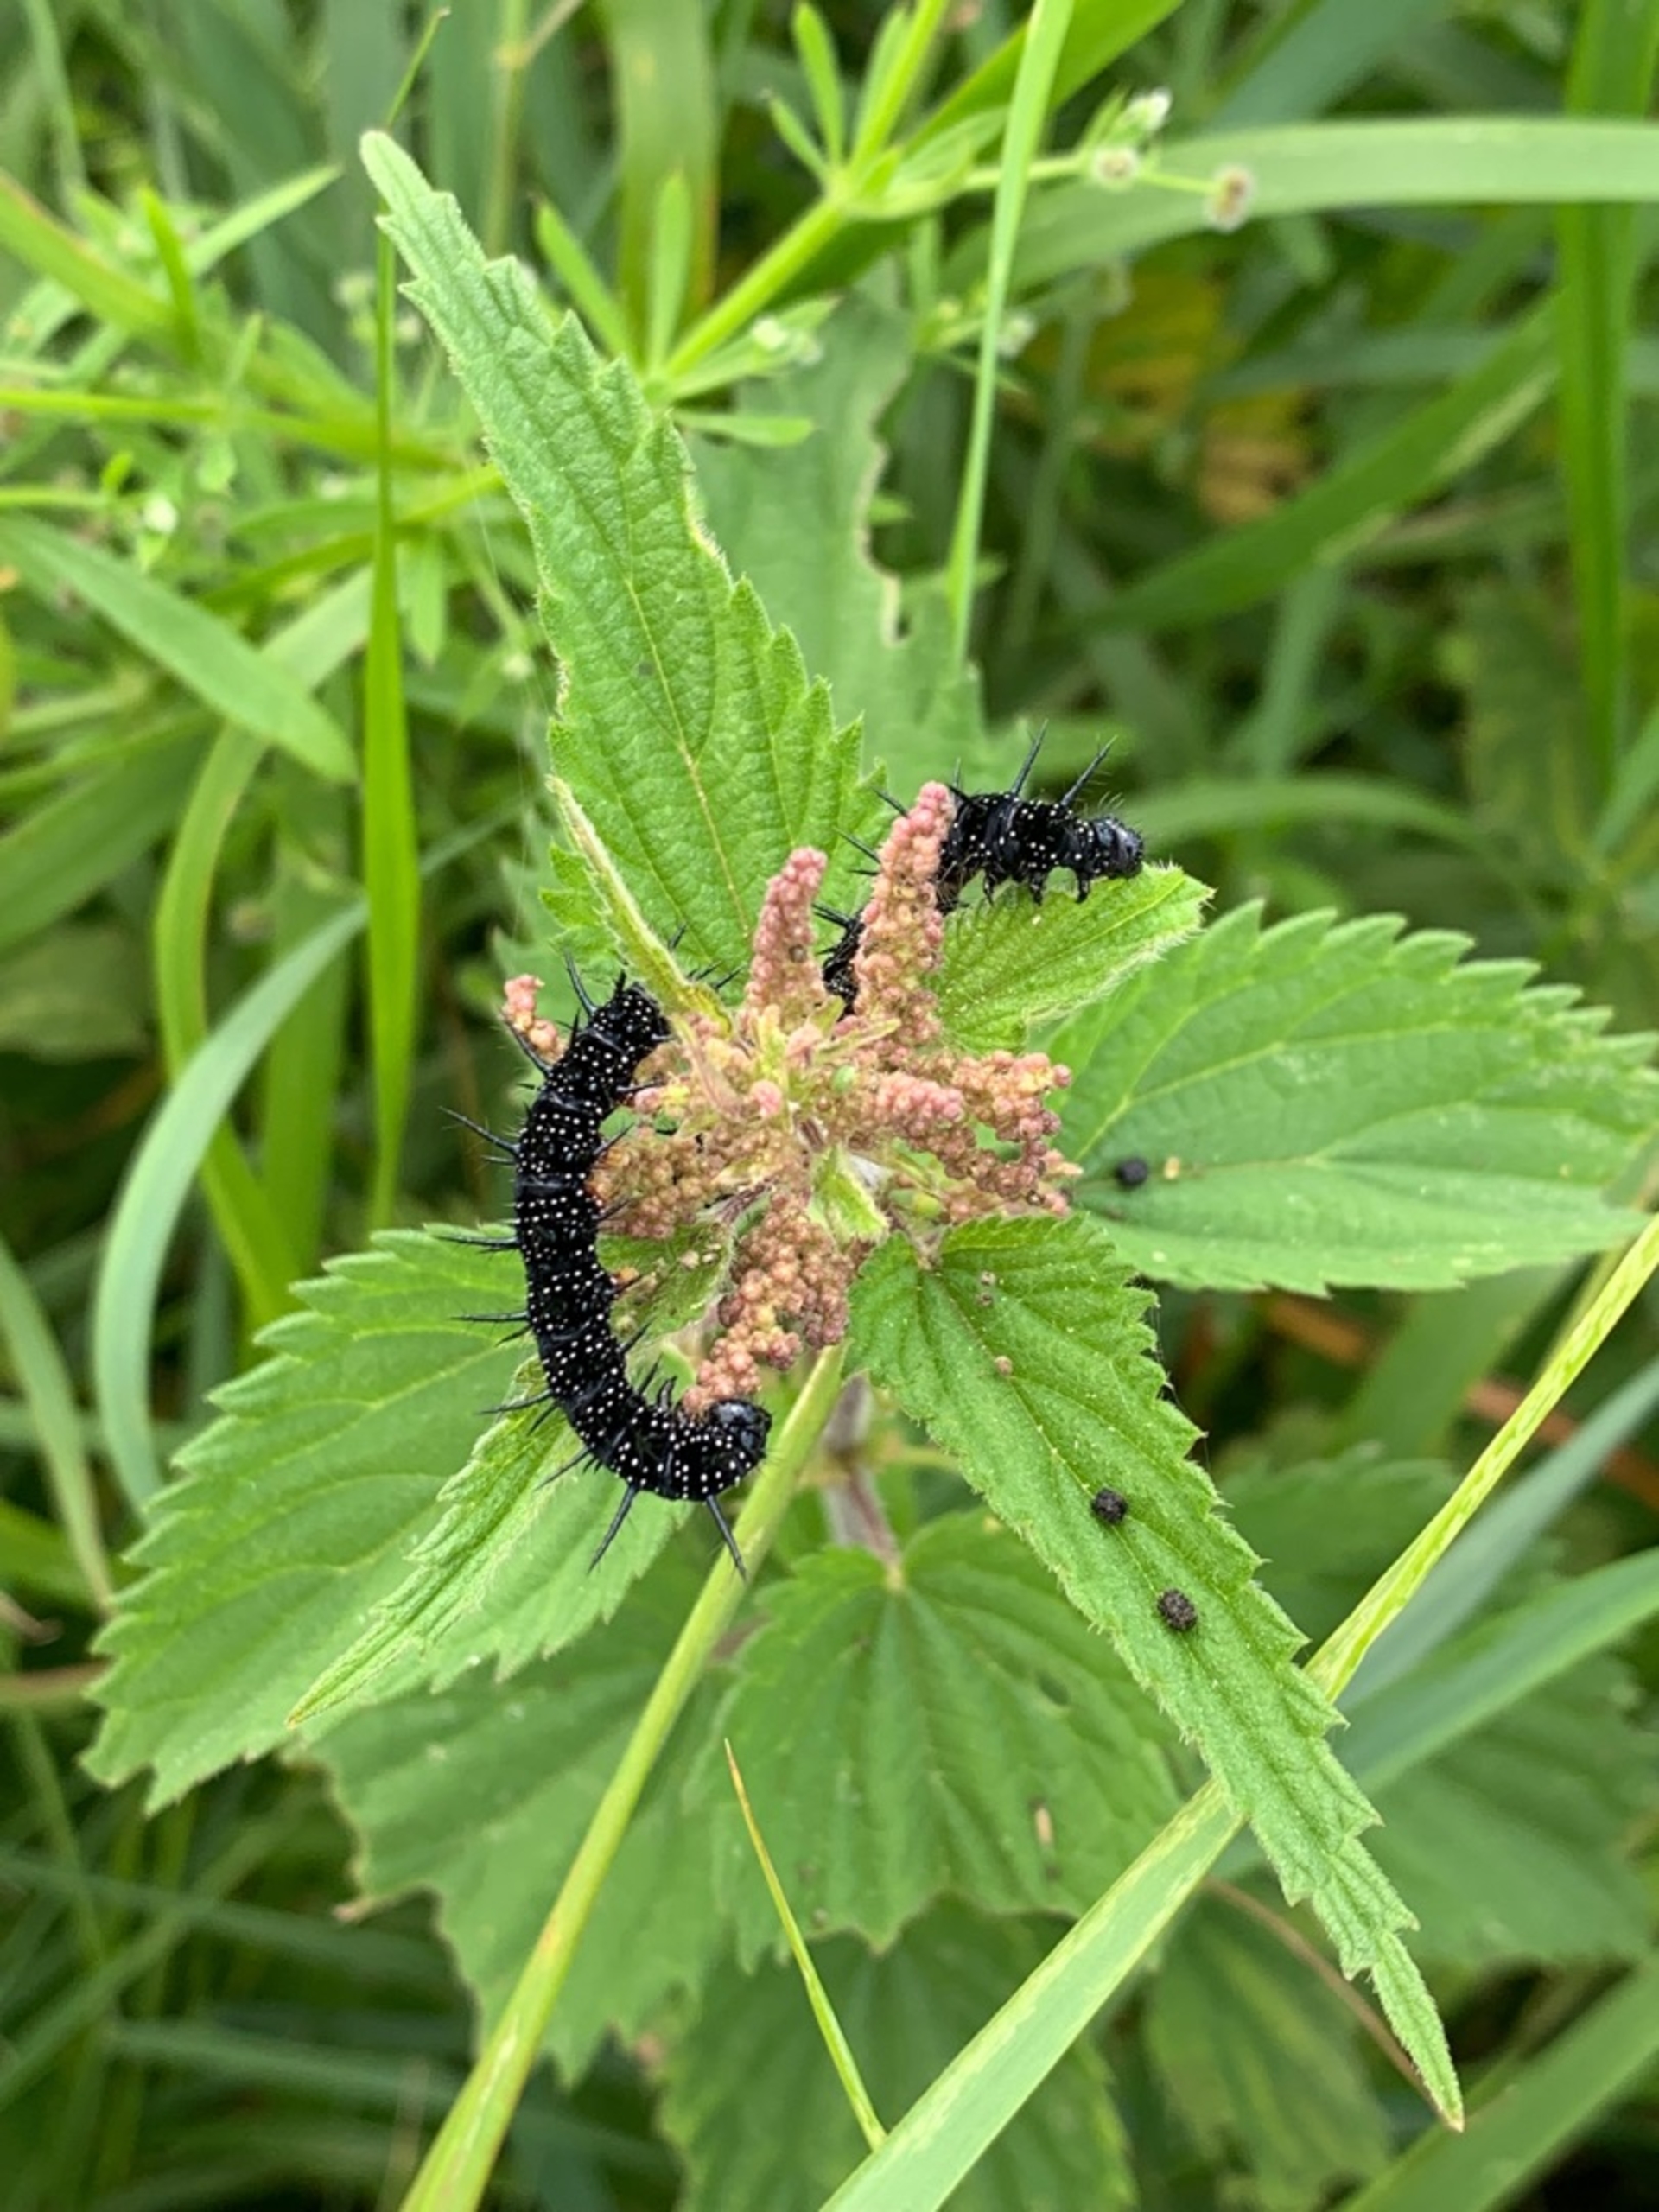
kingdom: Animalia
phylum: Arthropoda
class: Insecta
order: Lepidoptera
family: Nymphalidae
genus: Aglais
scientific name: Aglais io
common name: Dagpåfugleøje
